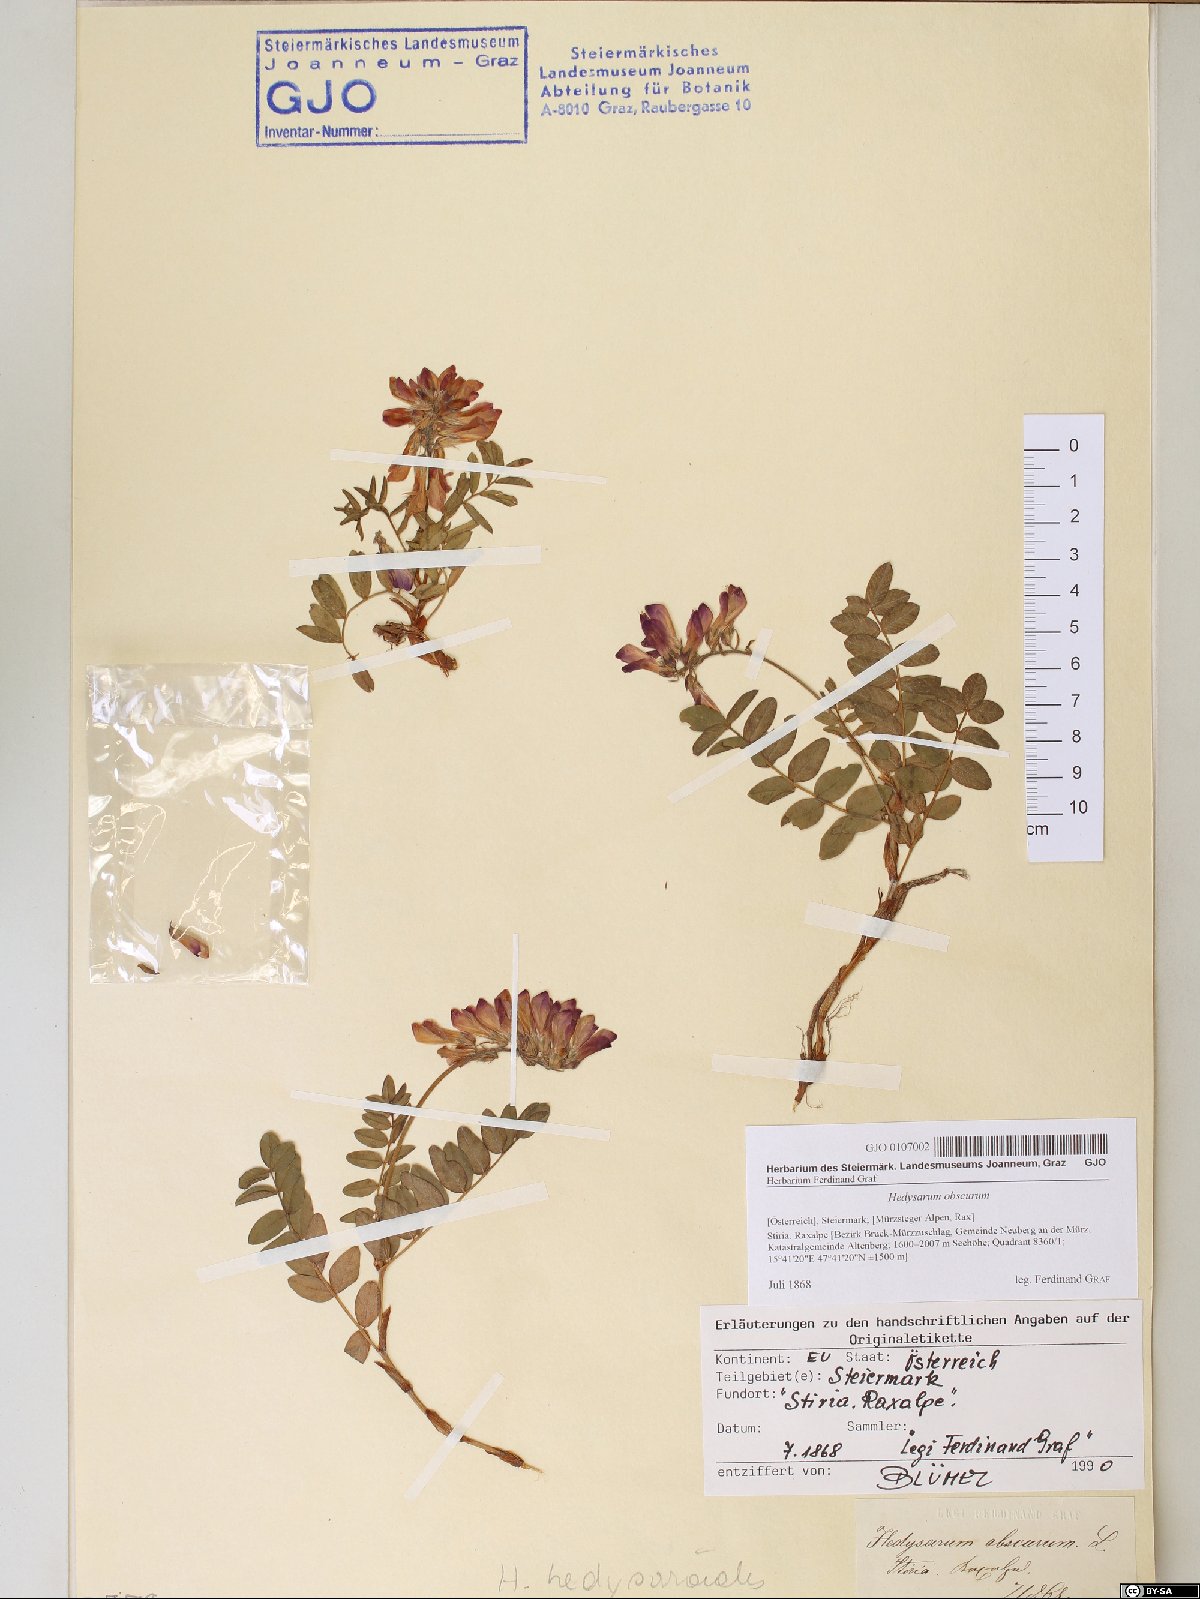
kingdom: Plantae
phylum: Tracheophyta
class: Magnoliopsida
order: Fabales
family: Fabaceae
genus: Hedysarum
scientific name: Hedysarum hedysaroides
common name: Alpine french-honeysuckle
